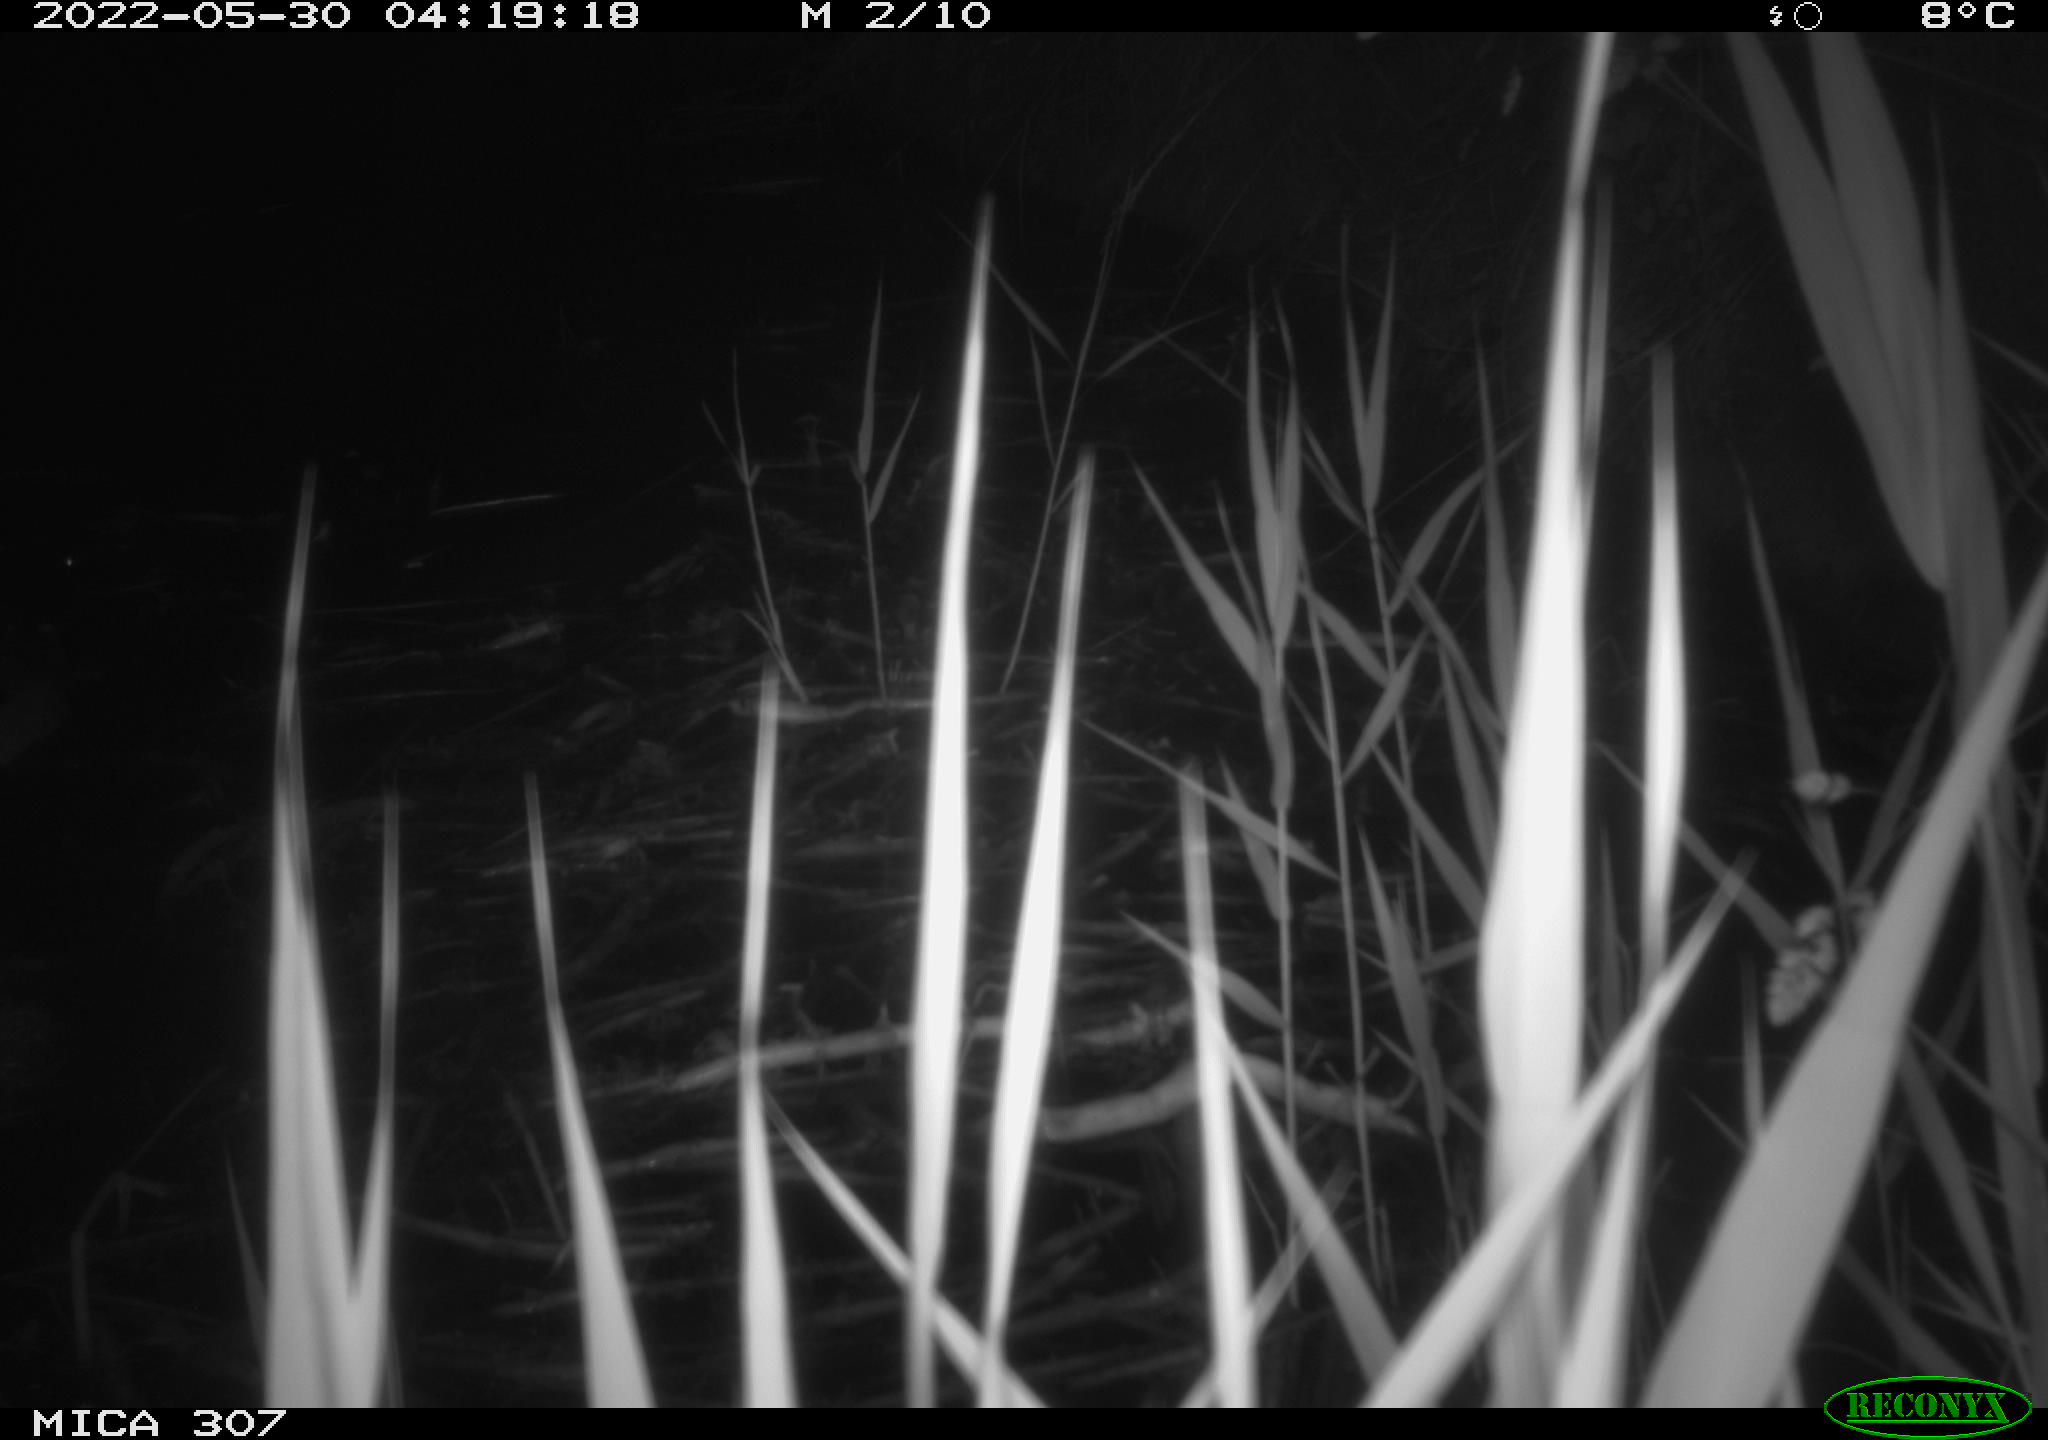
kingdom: Animalia
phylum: Chordata
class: Aves
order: Anseriformes
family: Anatidae
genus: Anas
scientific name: Anas platyrhynchos
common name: Mallard
